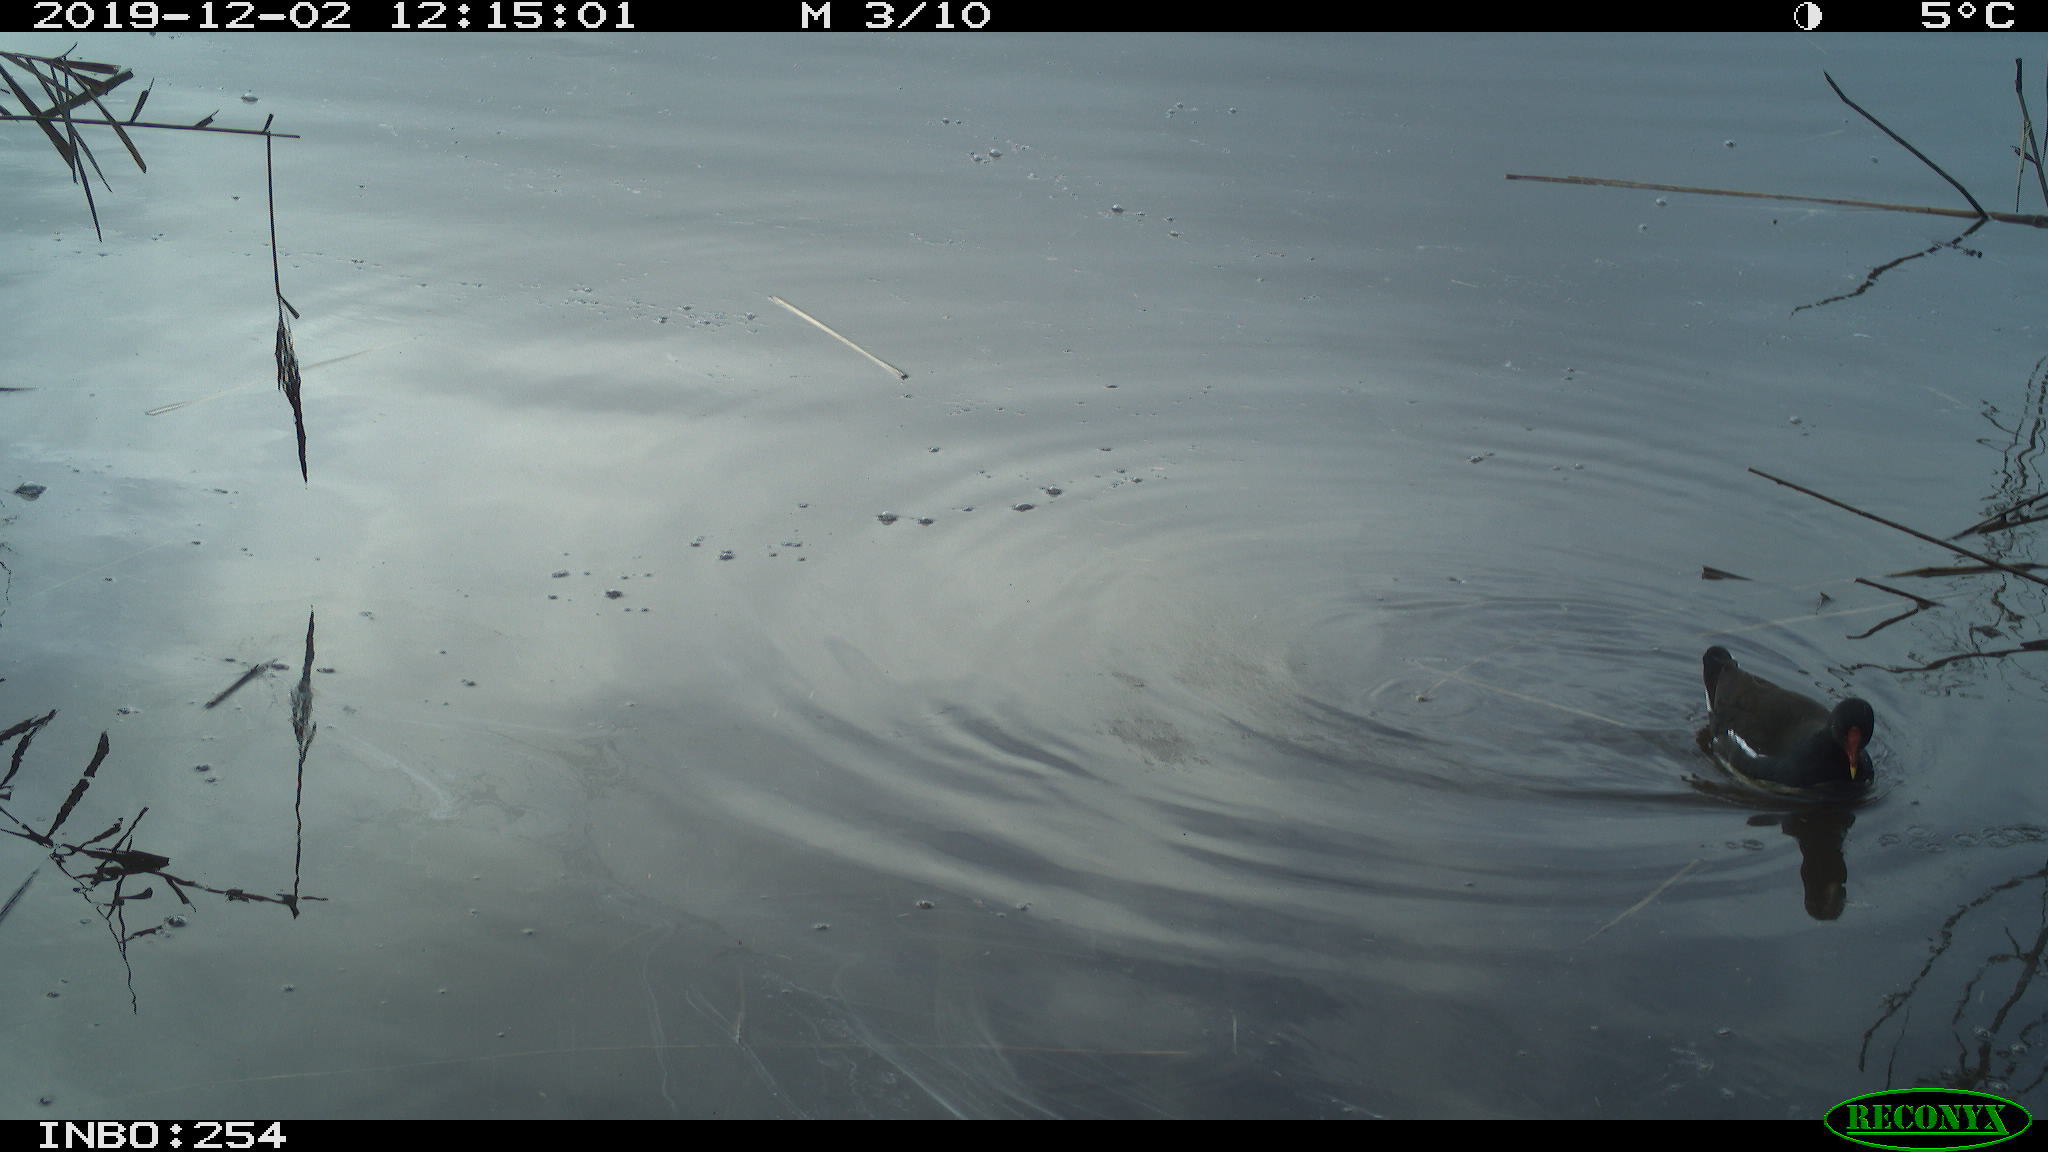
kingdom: Animalia
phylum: Chordata
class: Aves
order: Gruiformes
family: Rallidae
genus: Gallinula
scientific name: Gallinula chloropus
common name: Common moorhen
